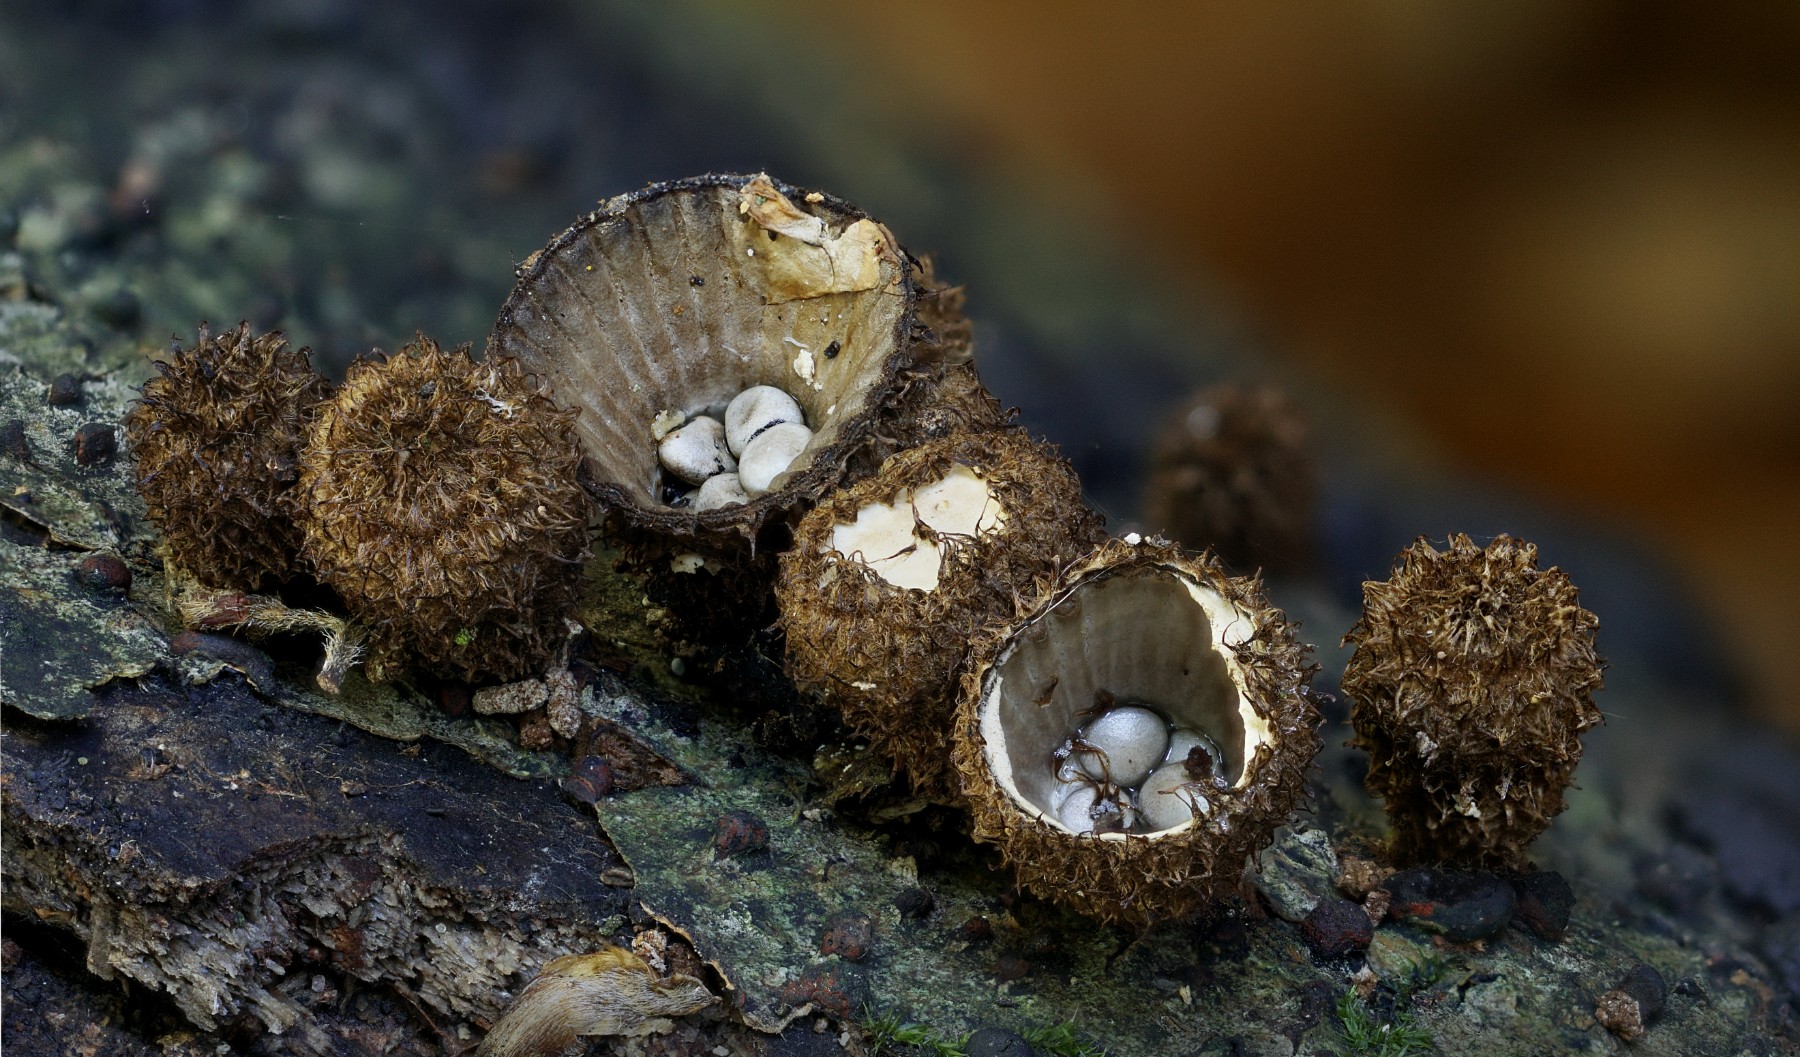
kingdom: Fungi
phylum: Basidiomycota
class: Agaricomycetes
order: Agaricales
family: Agaricaceae
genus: Cyathus
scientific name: Cyathus striatus
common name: stribet redesvamp
